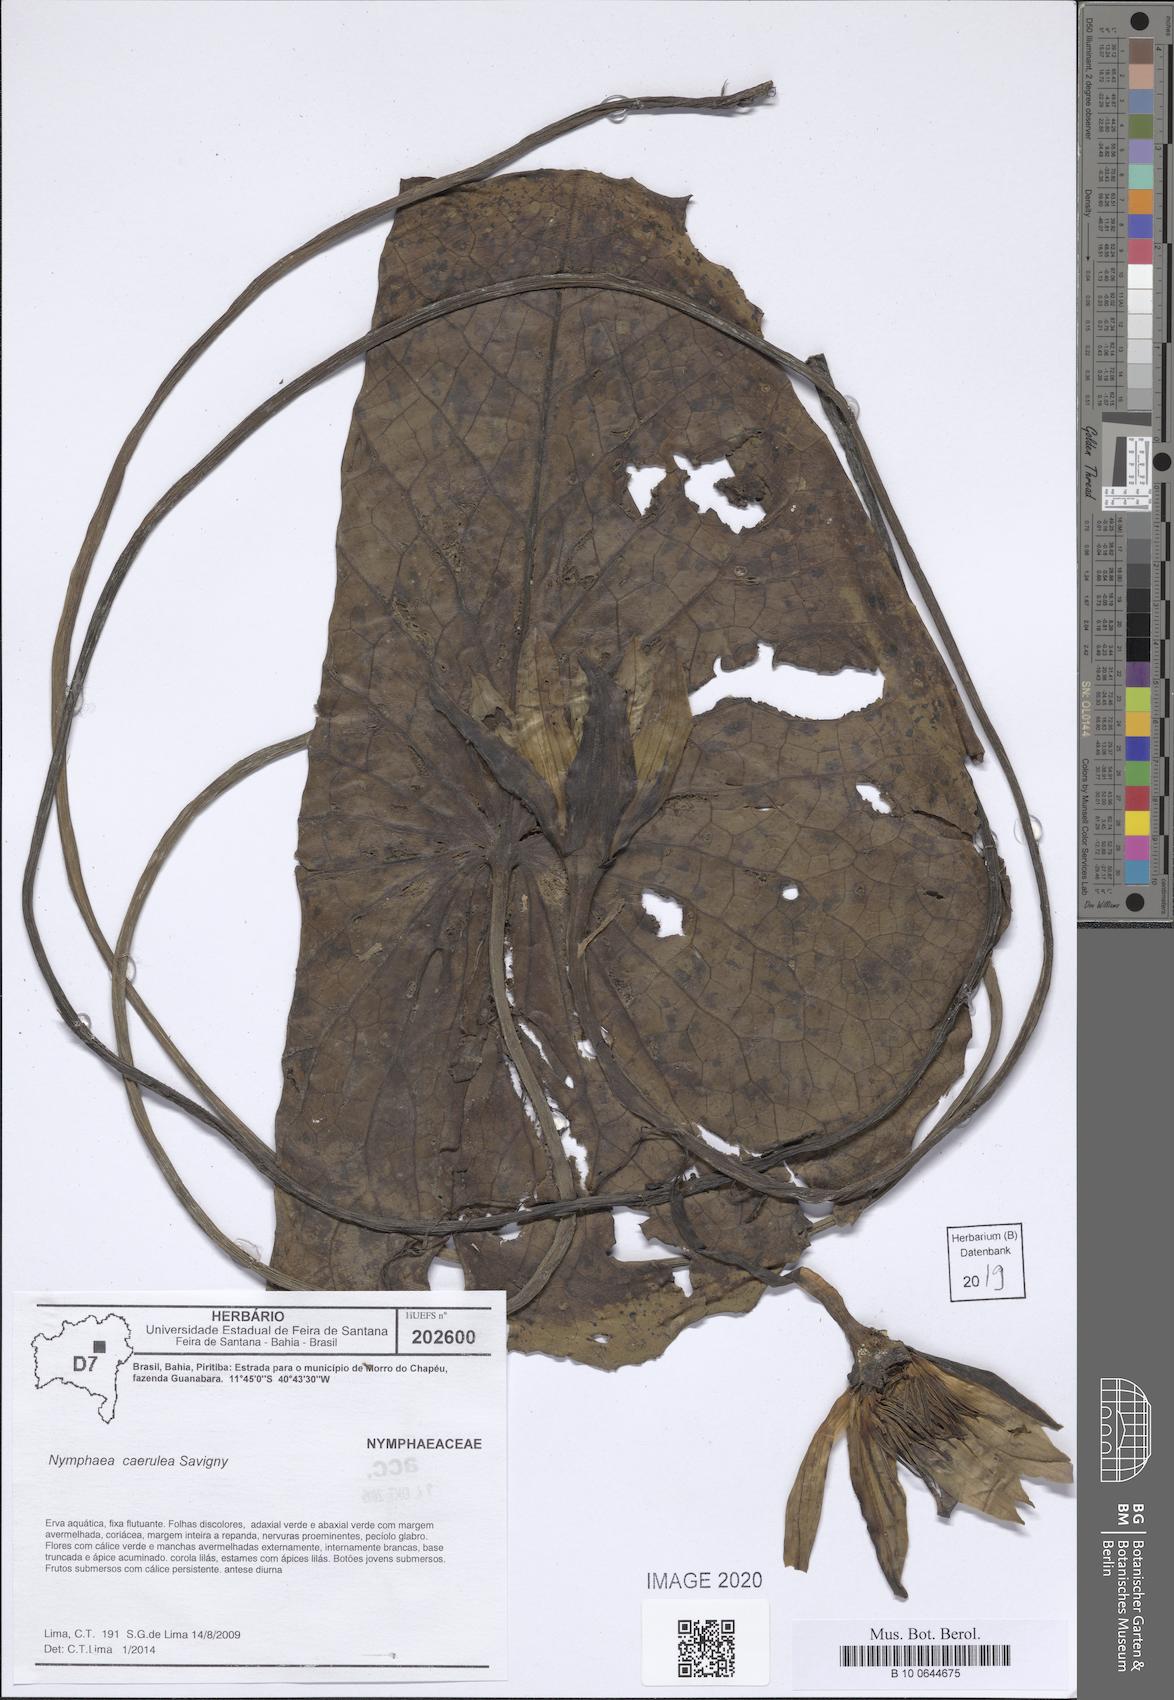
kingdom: Plantae
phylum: Tracheophyta
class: Magnoliopsida
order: Nymphaeales
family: Nymphaeaceae
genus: Nymphaea
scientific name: Nymphaea
